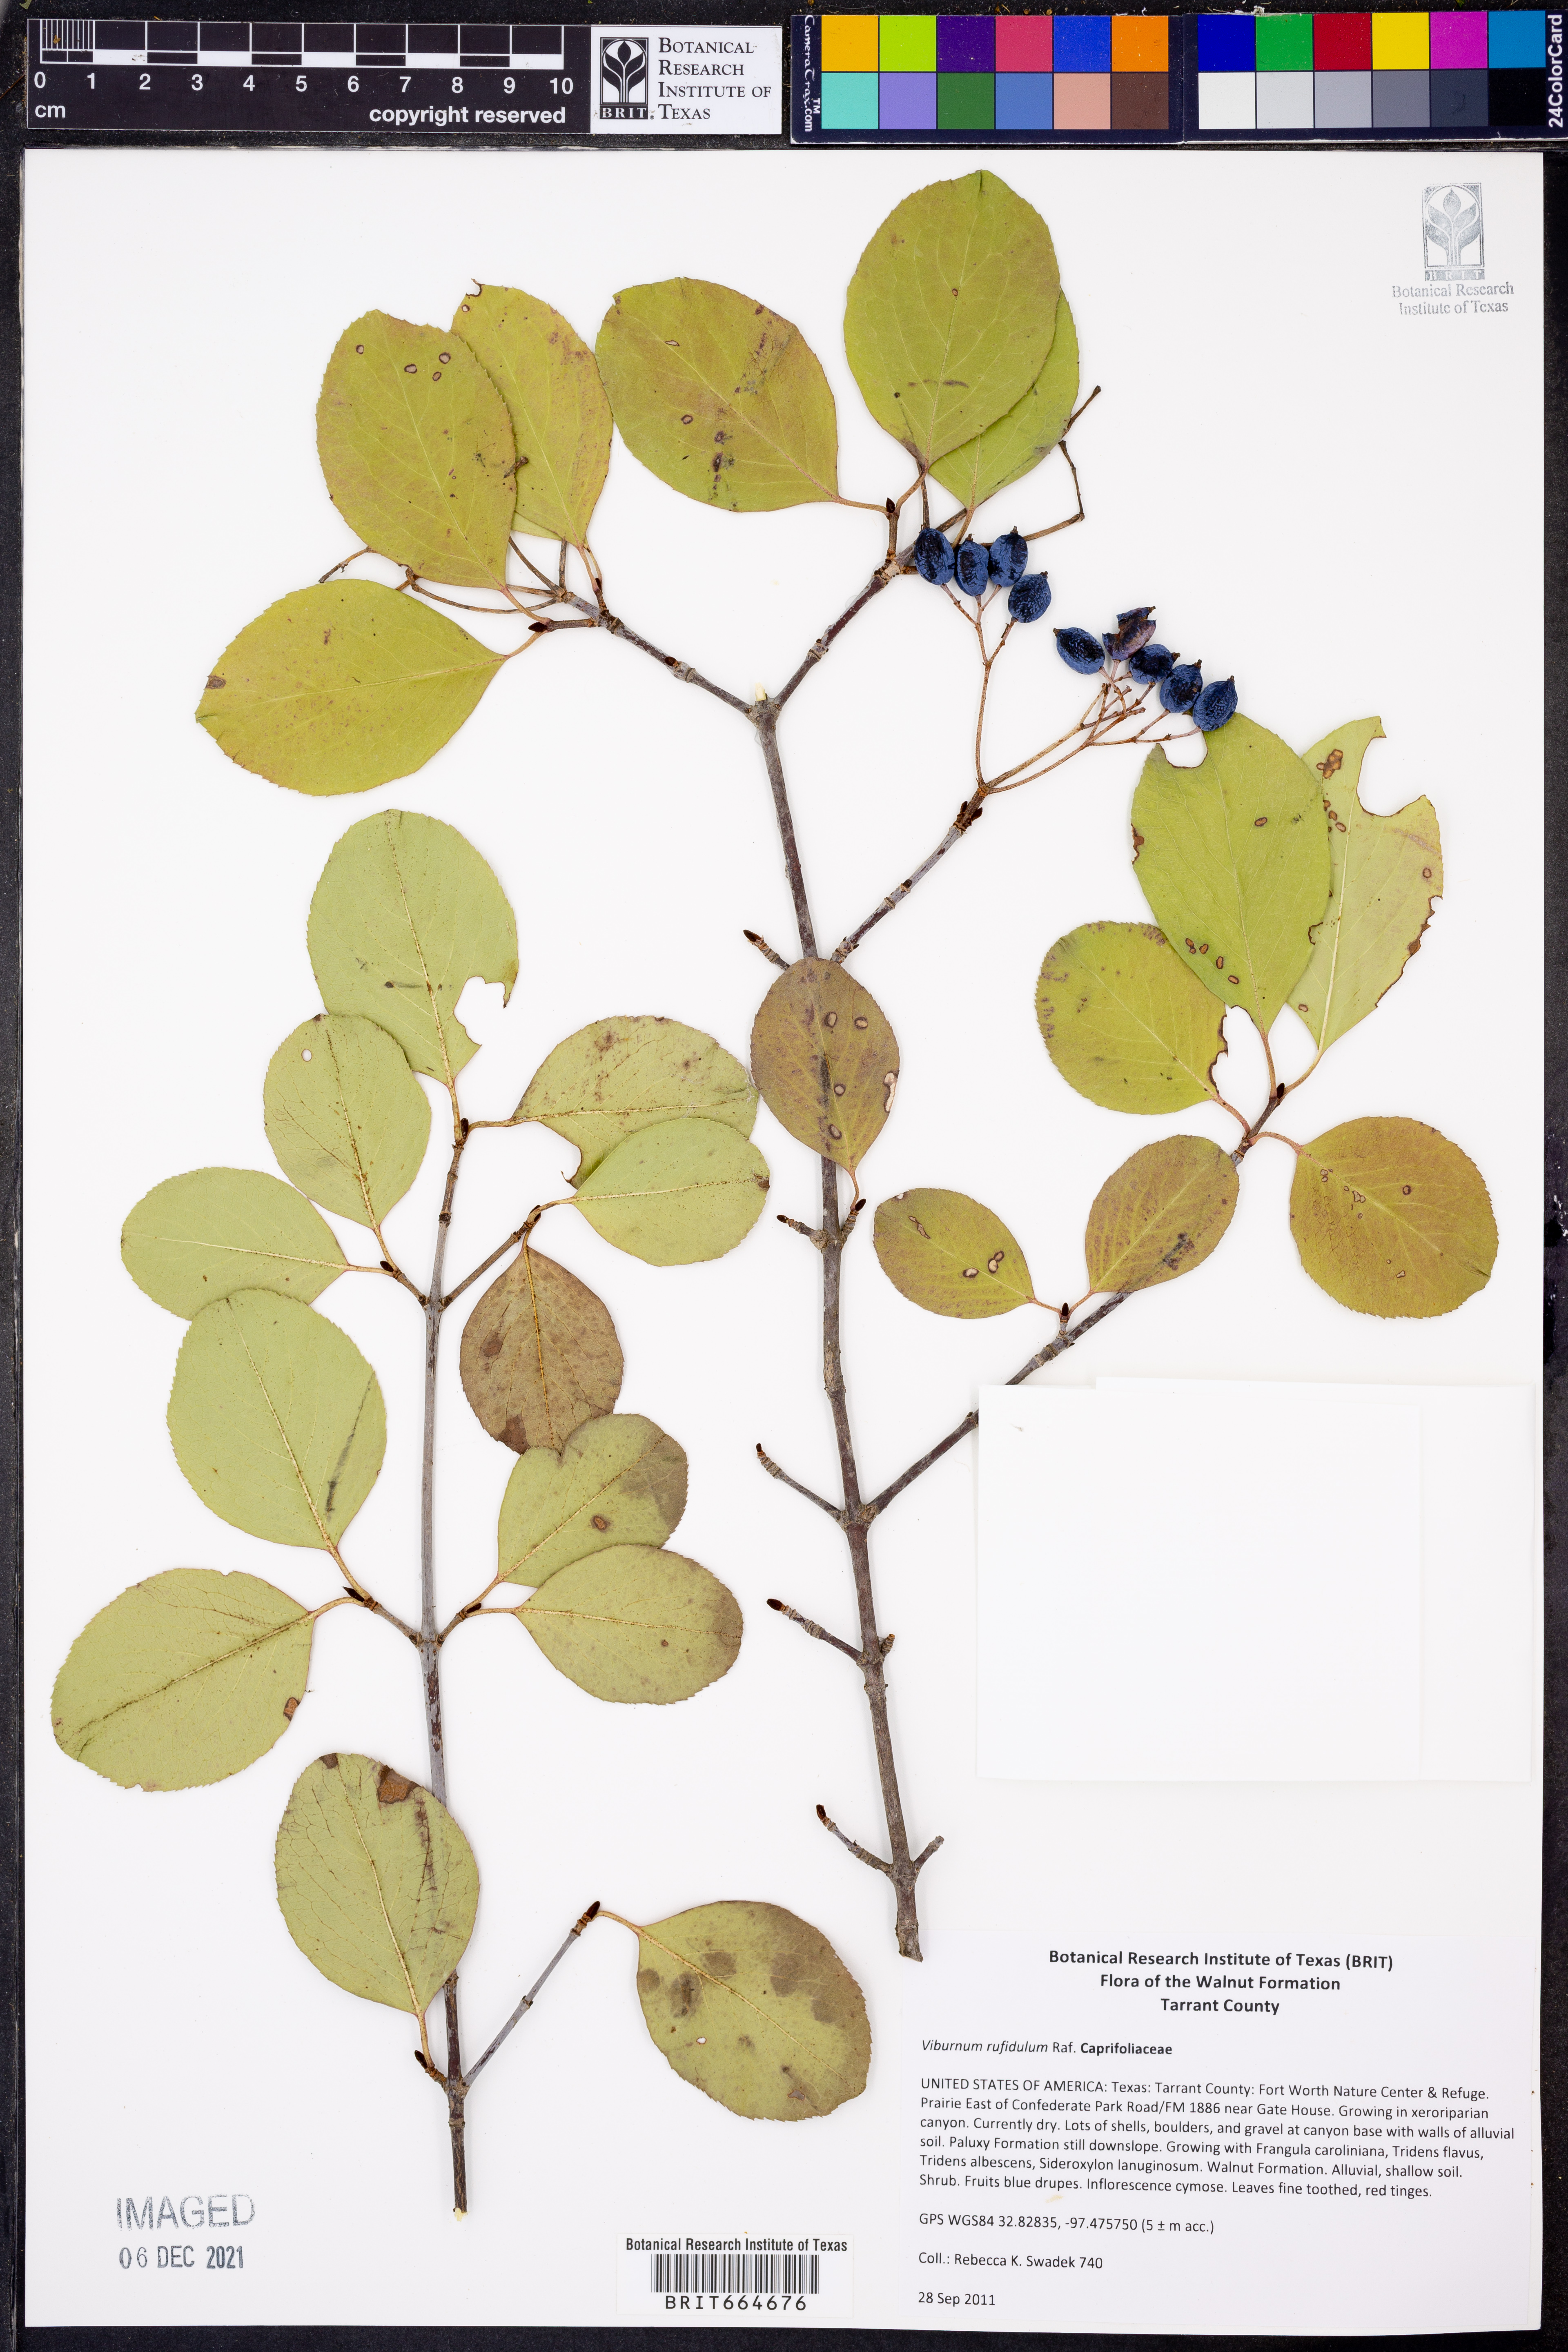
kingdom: Plantae
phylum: Tracheophyta
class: Magnoliopsida
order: Dipsacales
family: Viburnaceae
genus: Viburnum
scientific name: Viburnum rufidulum
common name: Blue haw
